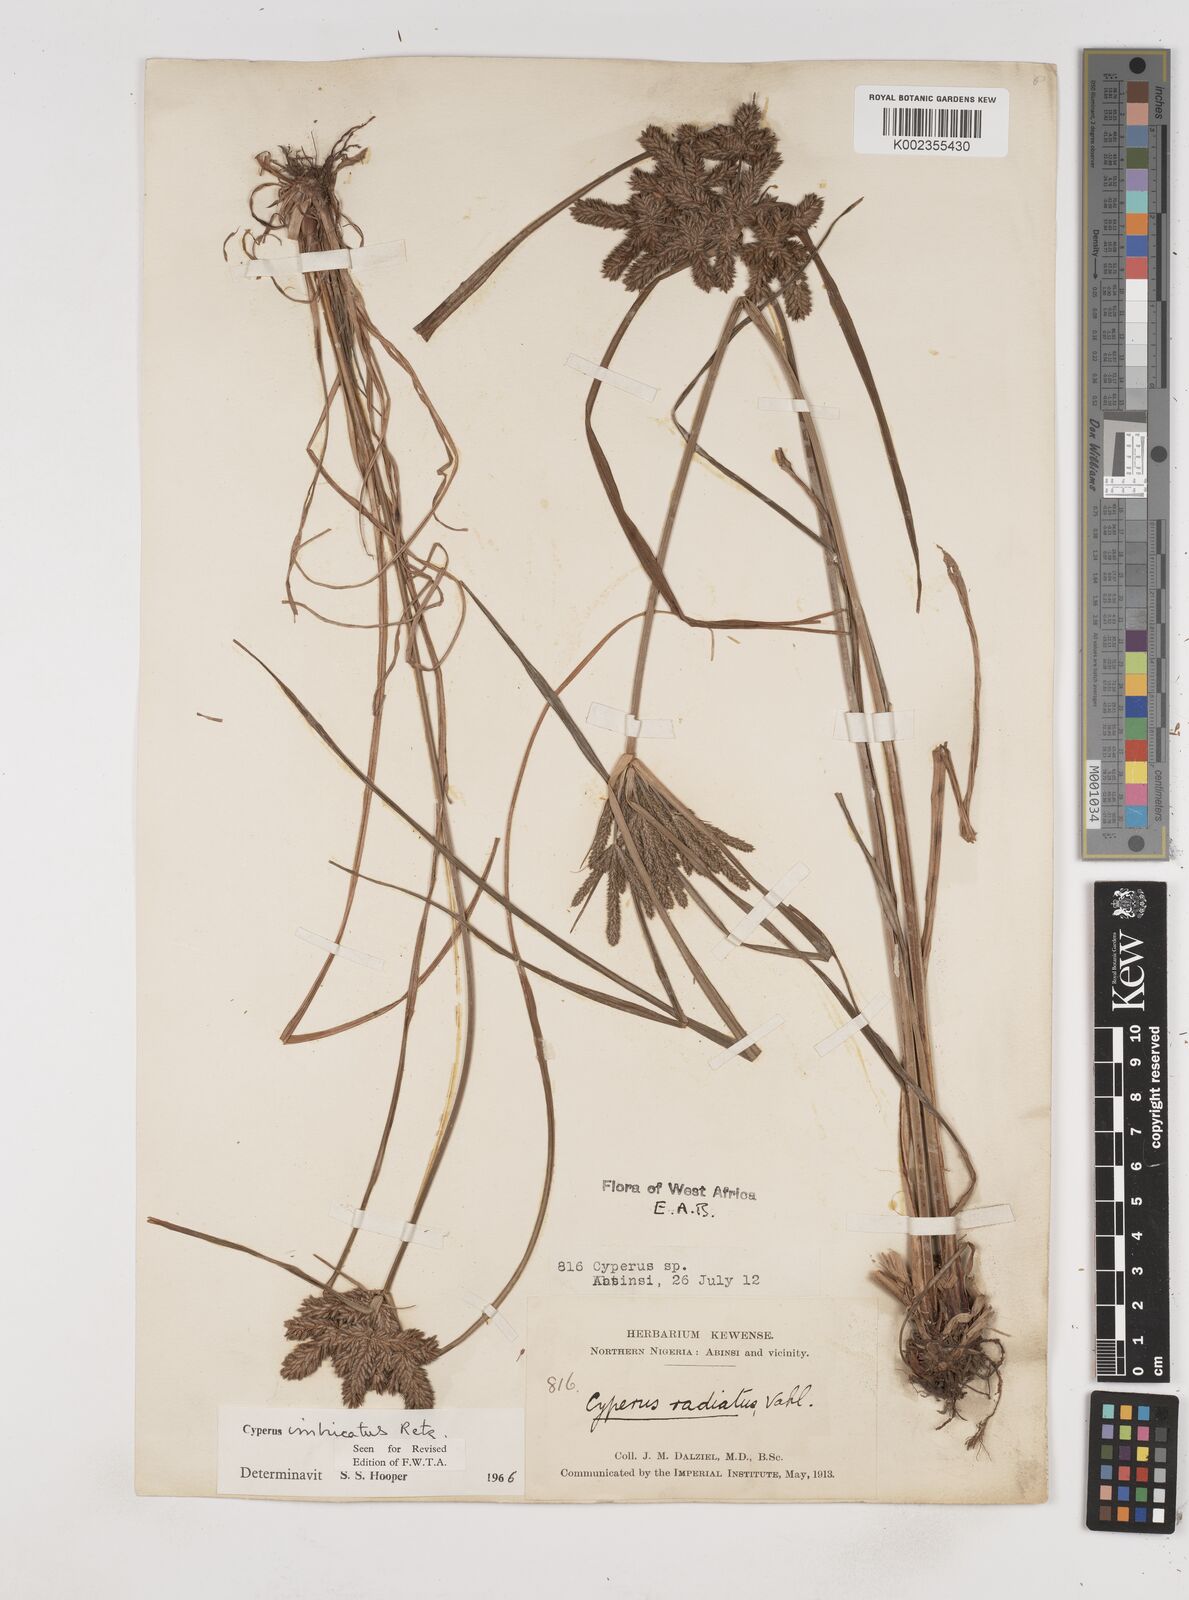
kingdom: Plantae
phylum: Tracheophyta
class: Liliopsida
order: Poales
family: Cyperaceae
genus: Cyperus
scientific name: Cyperus imbricatus
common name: Shingle flatsedge
